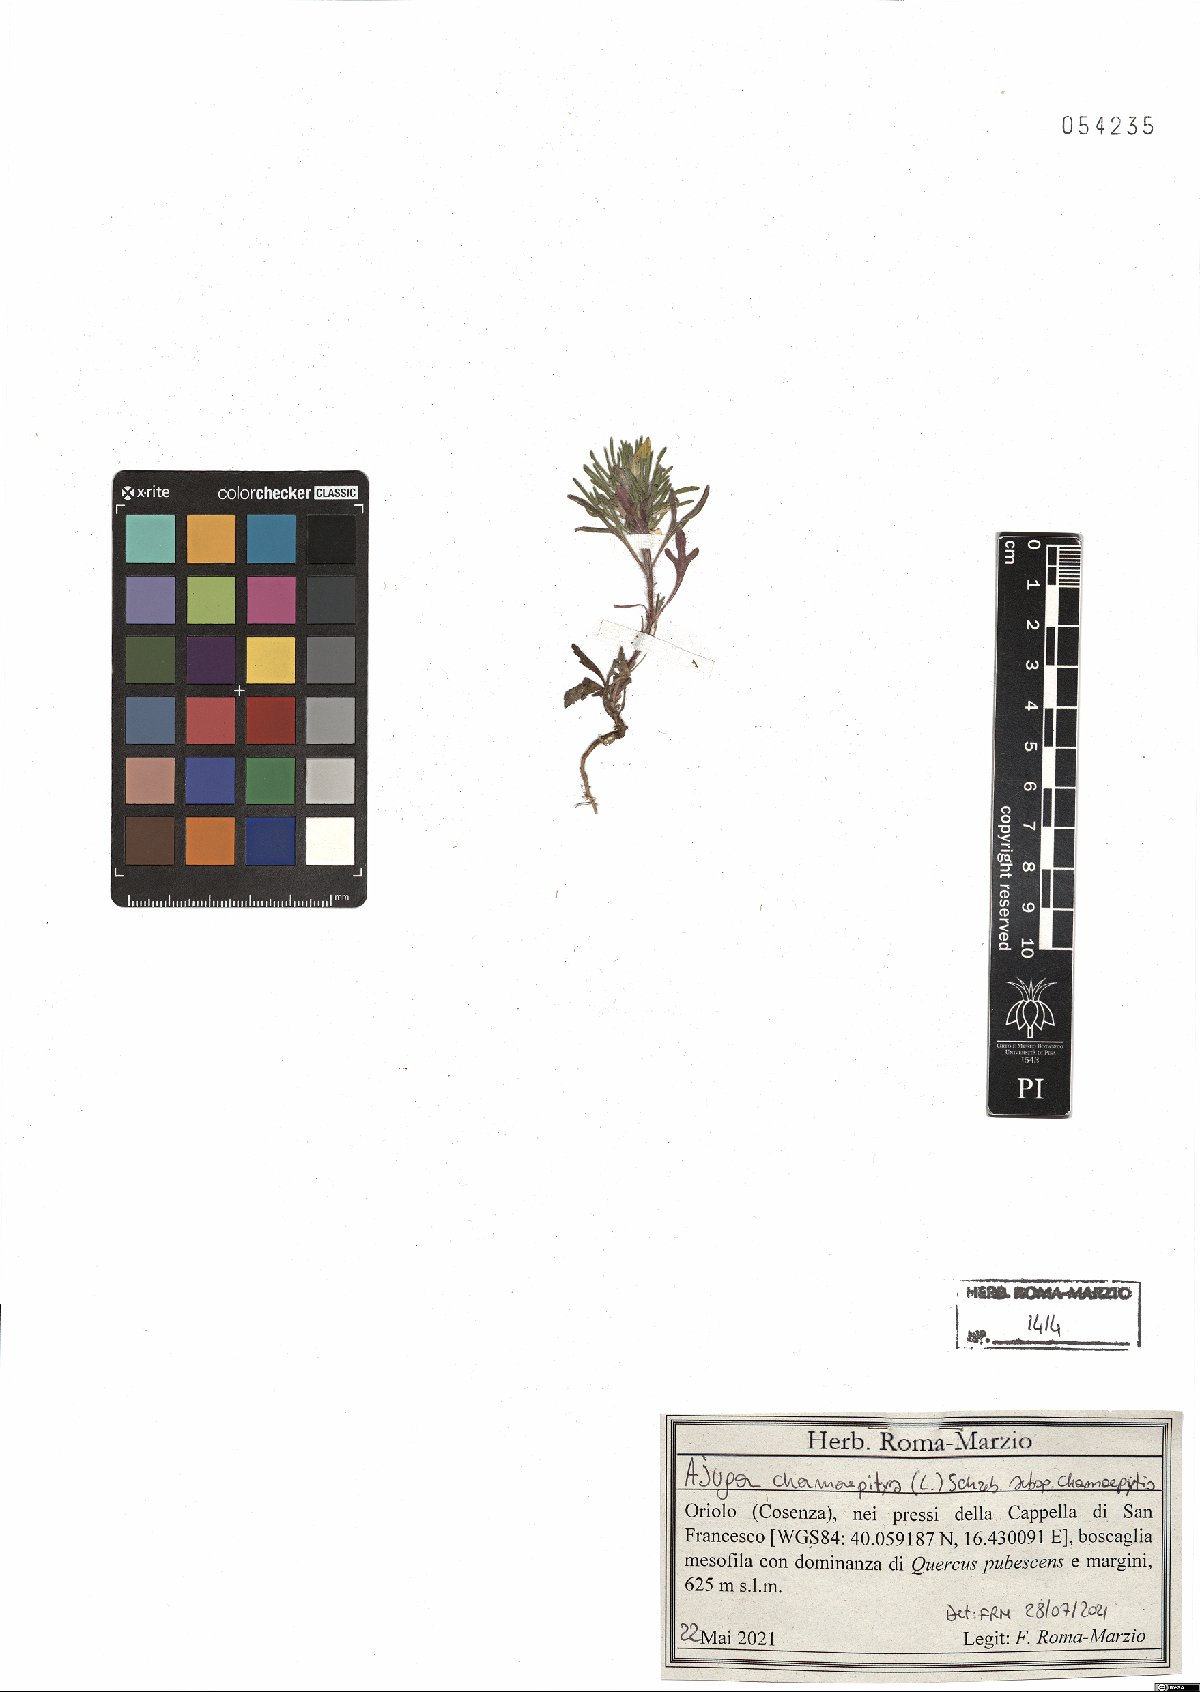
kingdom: Plantae
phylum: Tracheophyta
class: Magnoliopsida
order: Lamiales
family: Lamiaceae
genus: Ajuga
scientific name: Ajuga chamaepitys
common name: Ground-pine
